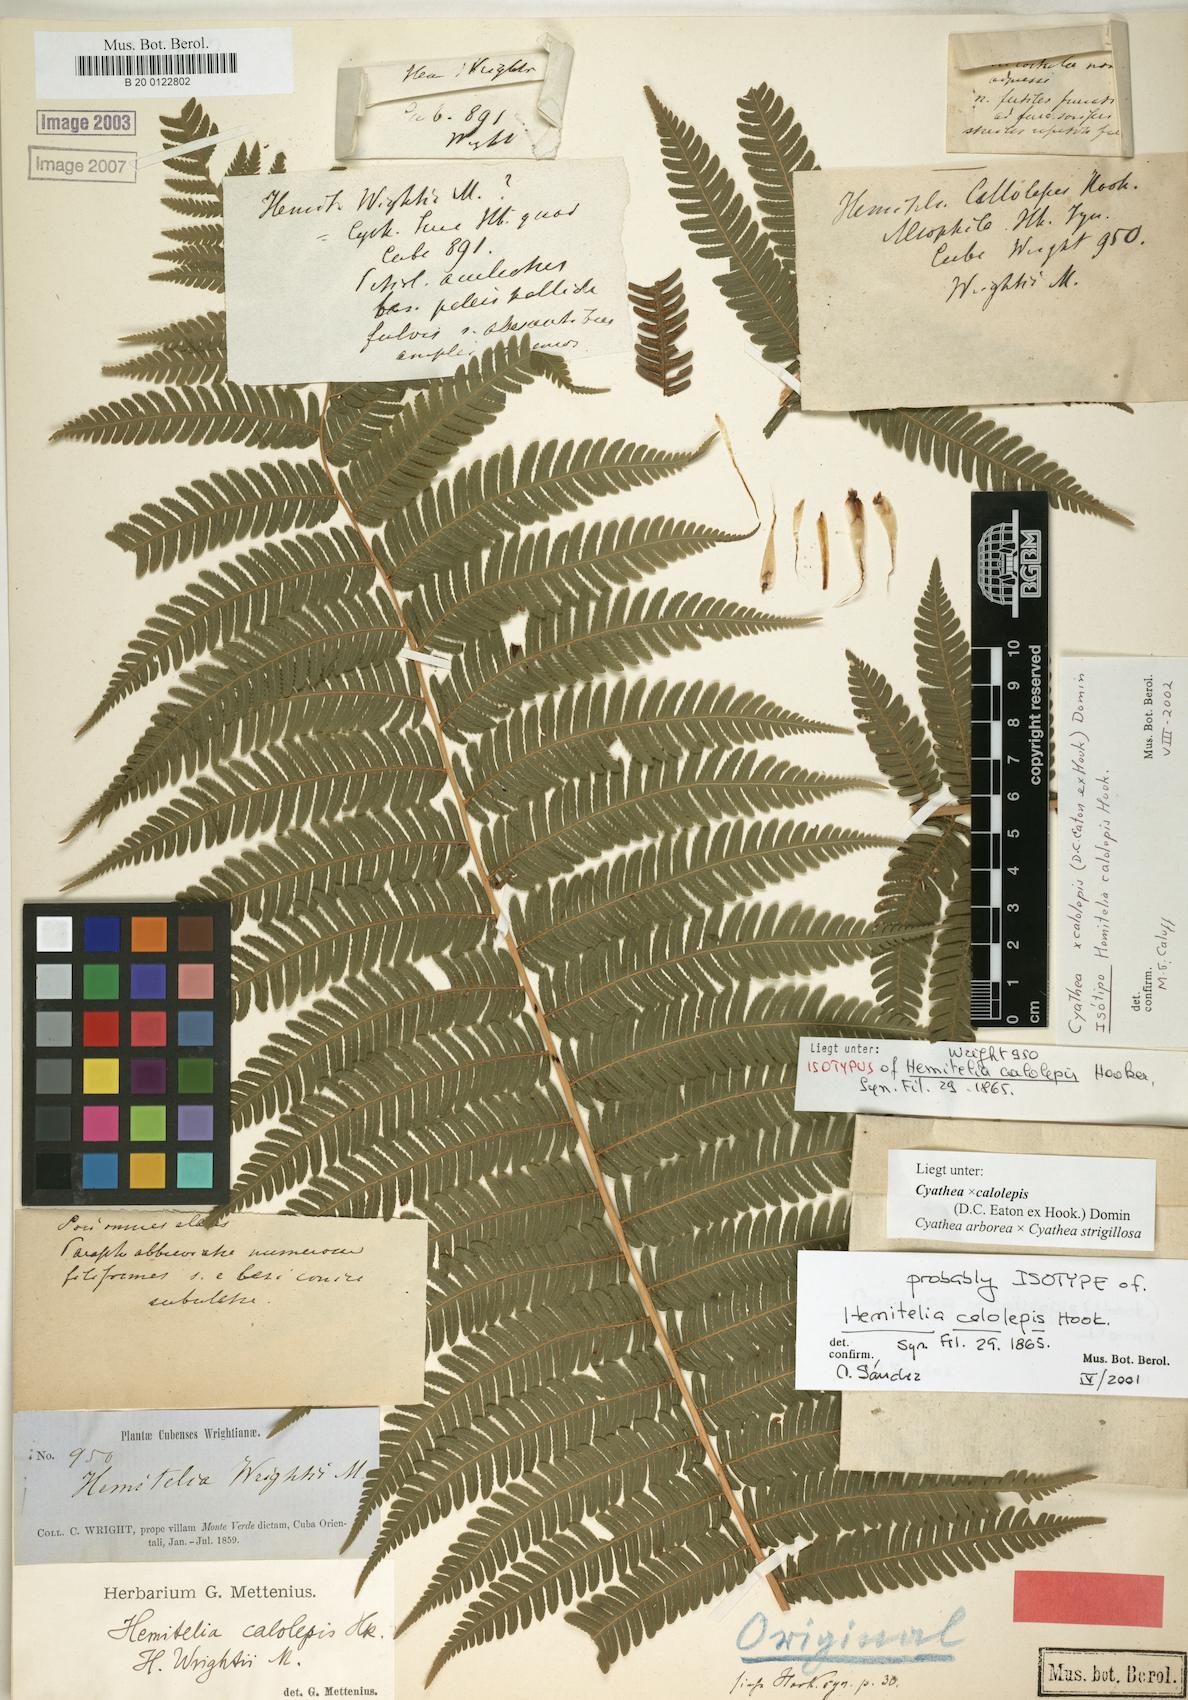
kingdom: Plantae
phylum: Tracheophyta
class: Polypodiopsida
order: Cyatheales
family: Cyatheaceae
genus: Cyathea
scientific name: Cyathea calolepis
